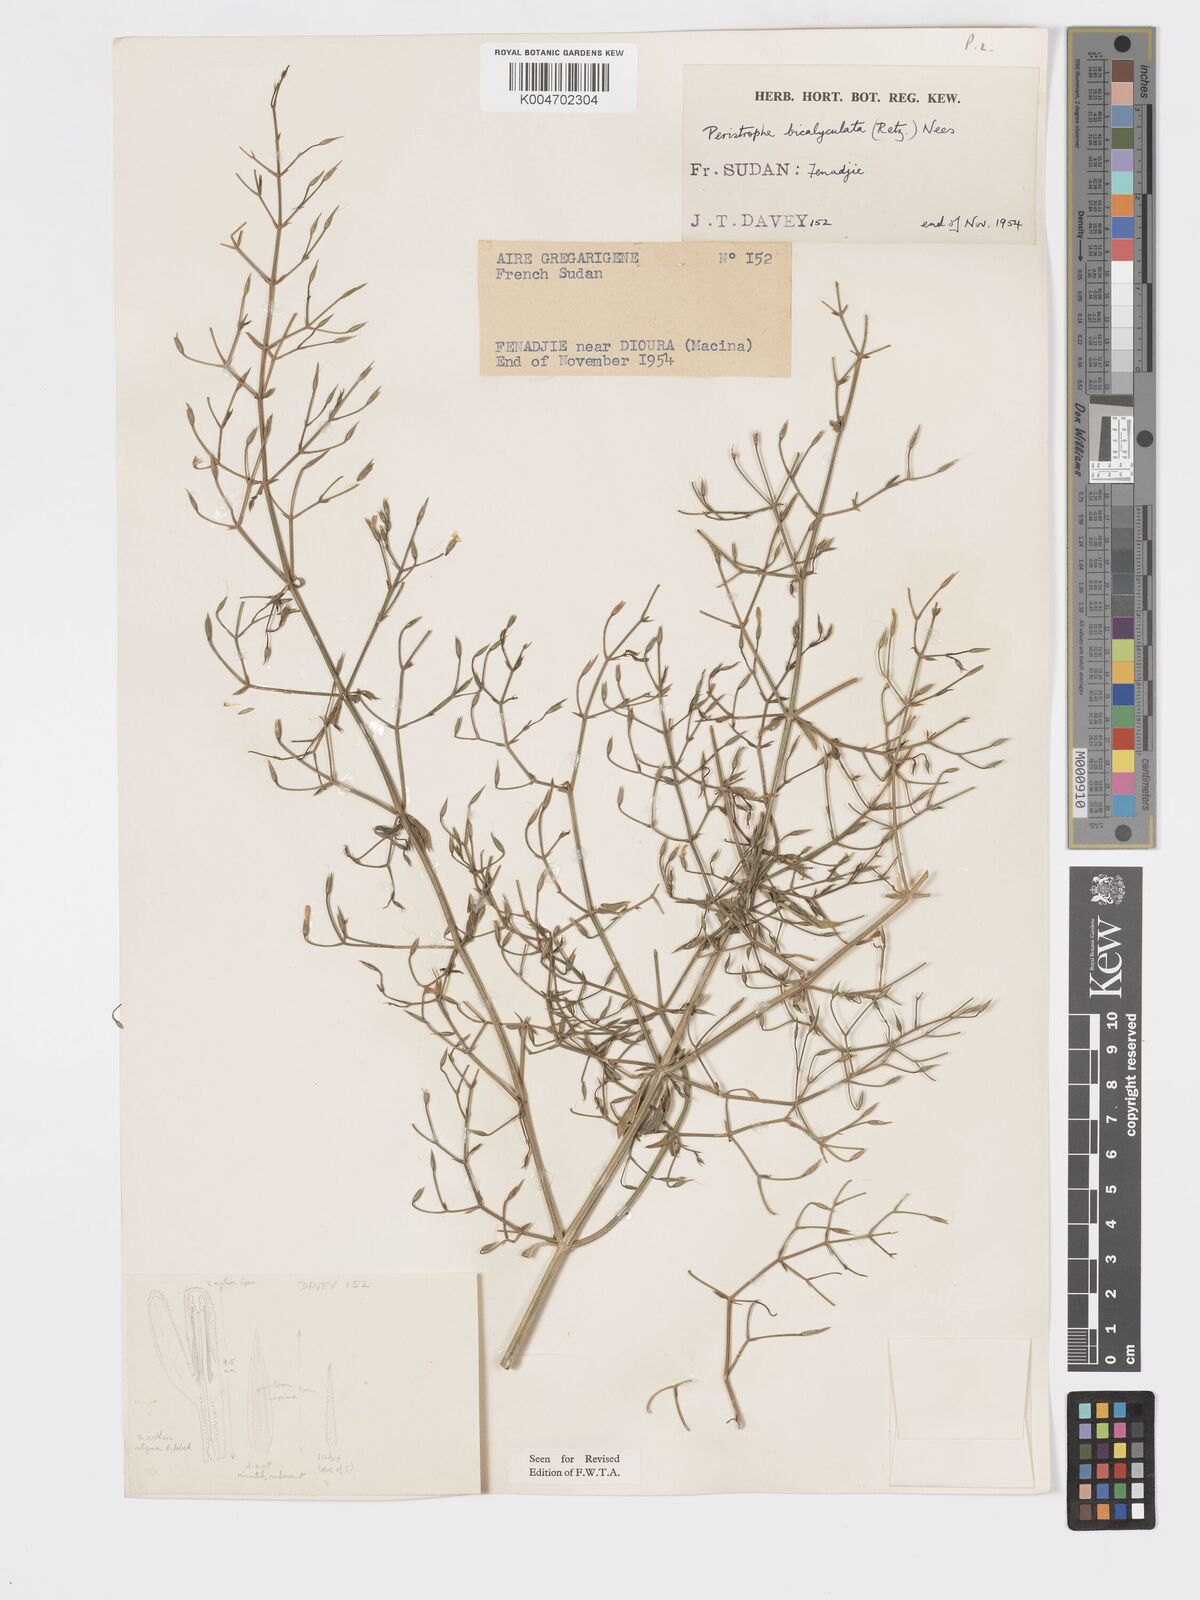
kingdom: Plantae
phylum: Tracheophyta
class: Magnoliopsida
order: Lamiales
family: Acanthaceae
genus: Dicliptera
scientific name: Dicliptera paniculata
